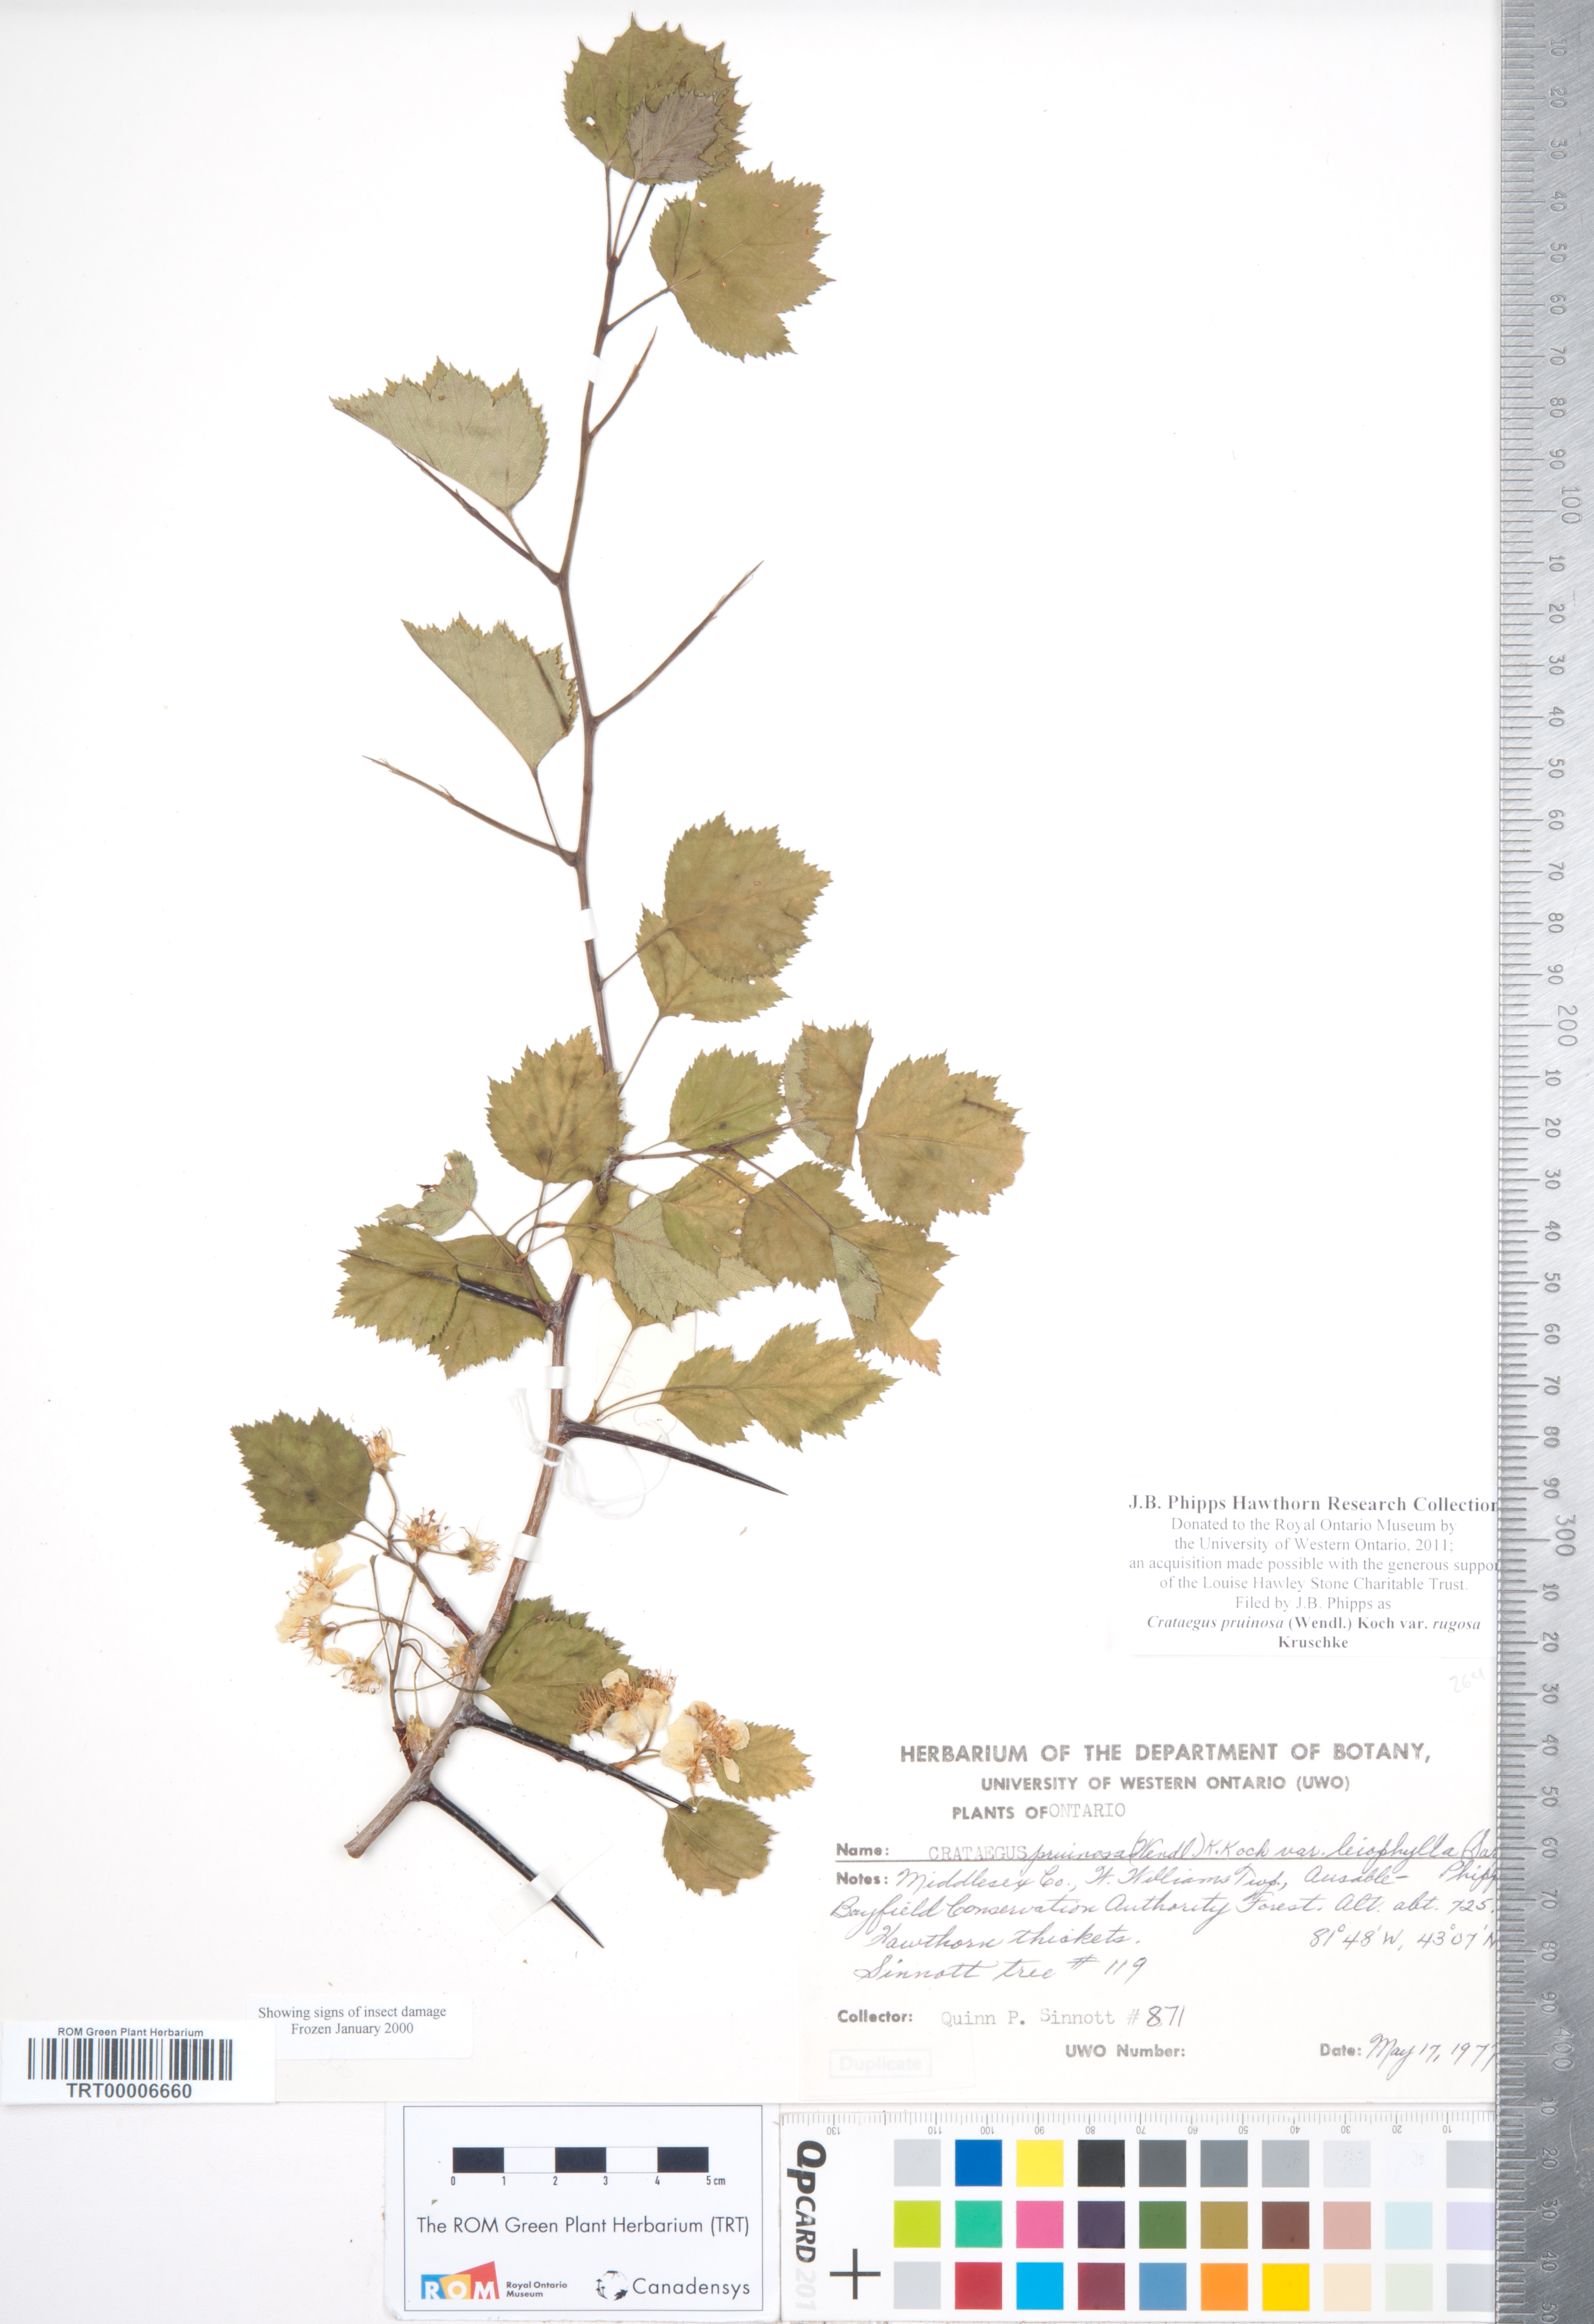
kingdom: Plantae
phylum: Tracheophyta
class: Magnoliopsida
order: Rosales
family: Rosaceae
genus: Crataegus
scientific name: Crataegus pruinosa
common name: Waxy-fruit hawthorn
